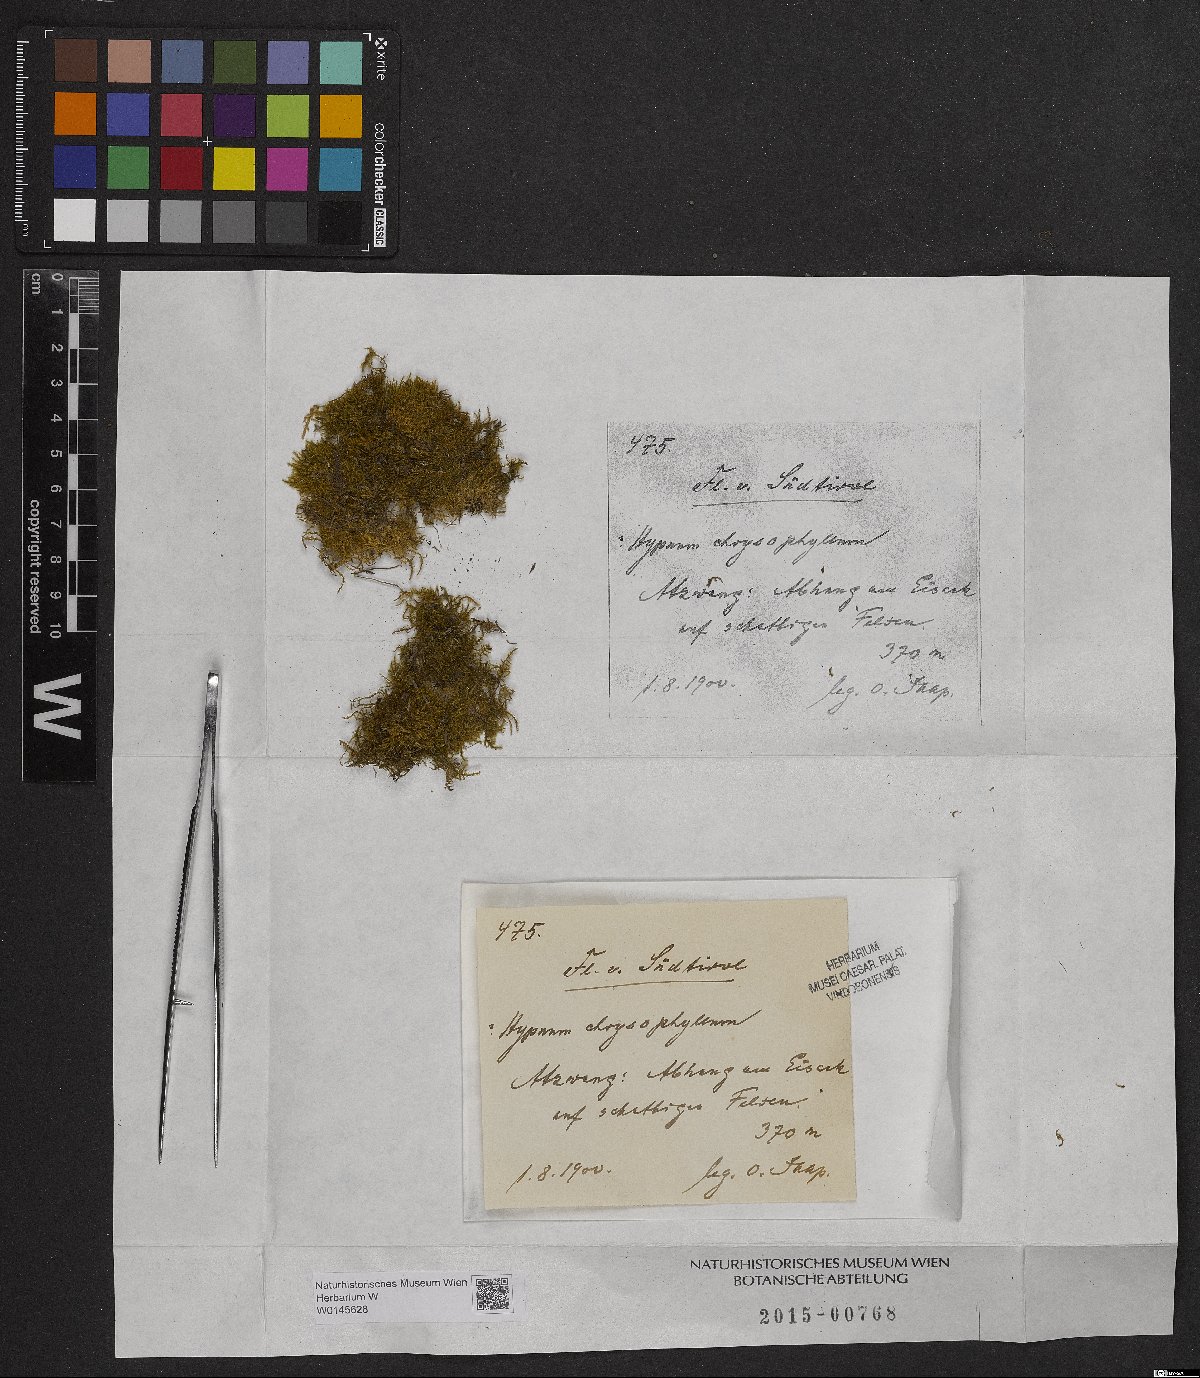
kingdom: Plantae
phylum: Bryophyta
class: Bryopsida
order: Hypnales
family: Amblystegiaceae
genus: Campylium
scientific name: Campylium chrysophyllum
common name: Goldenleaf campylium moss
